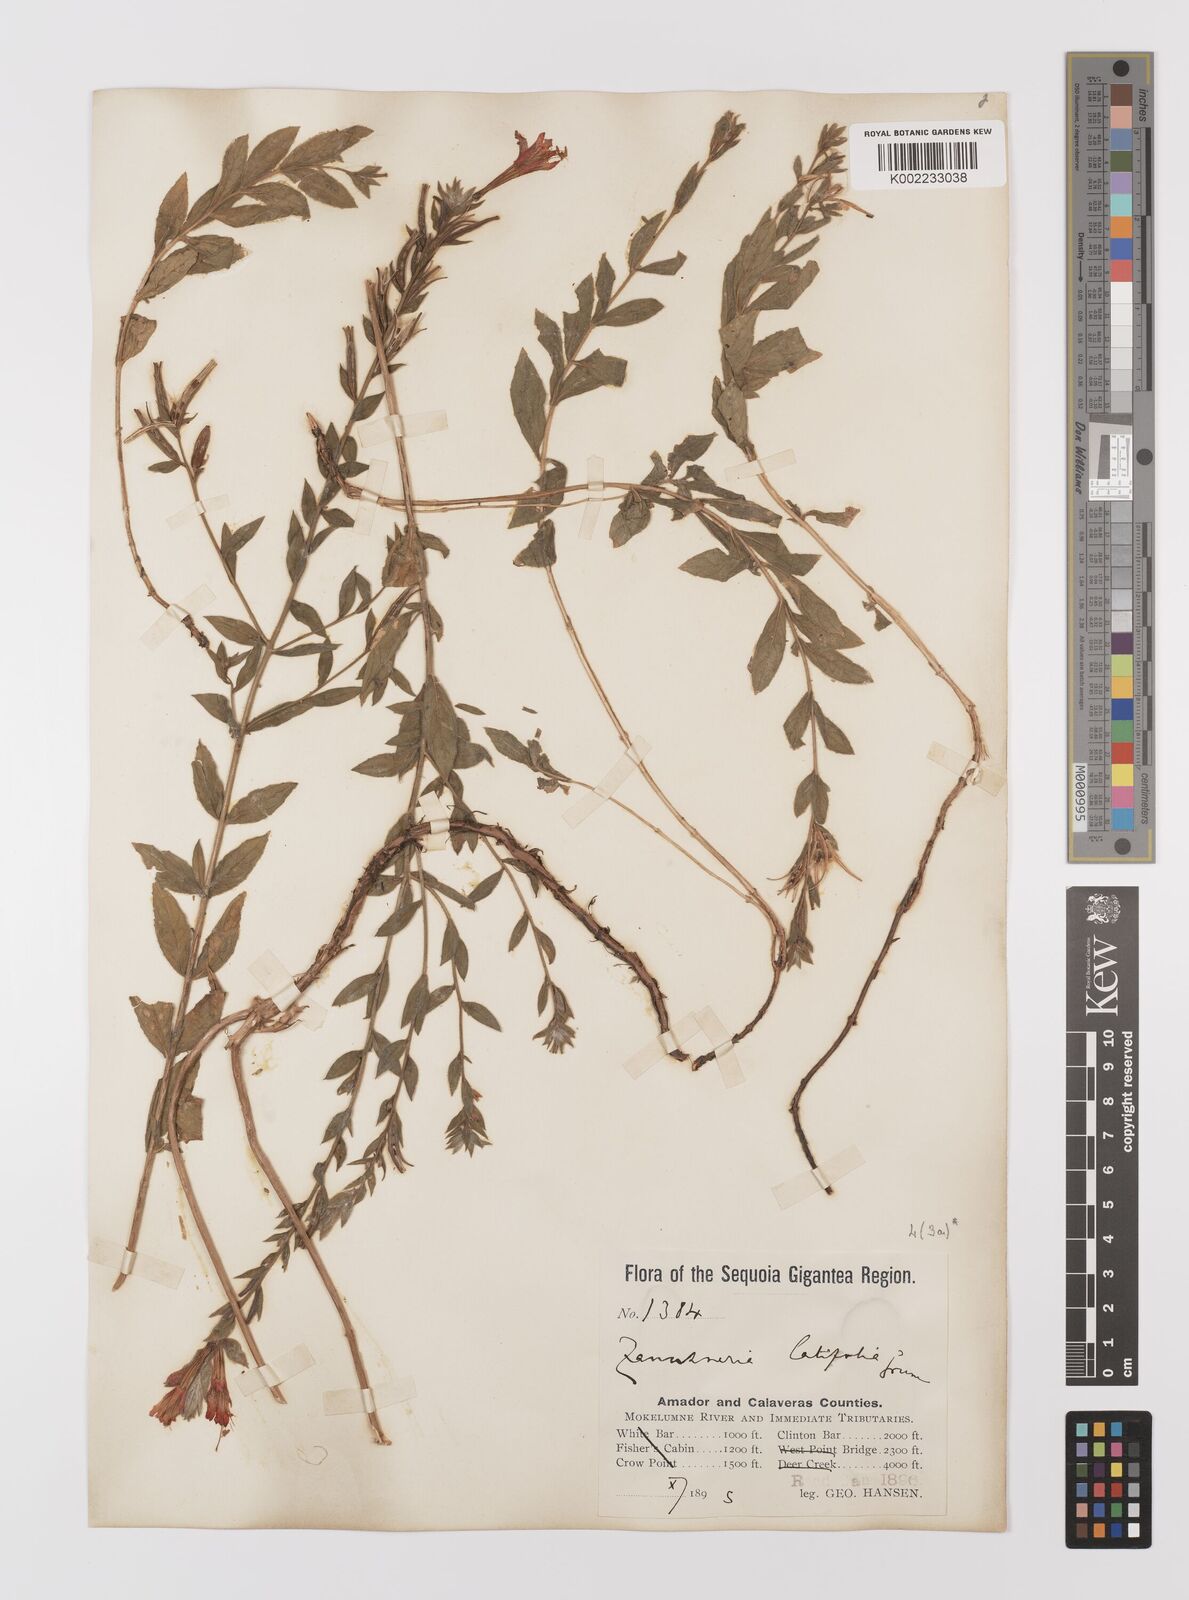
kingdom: Plantae
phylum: Tracheophyta
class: Magnoliopsida
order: Myrtales
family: Onagraceae
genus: Epilobium
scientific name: Epilobium
